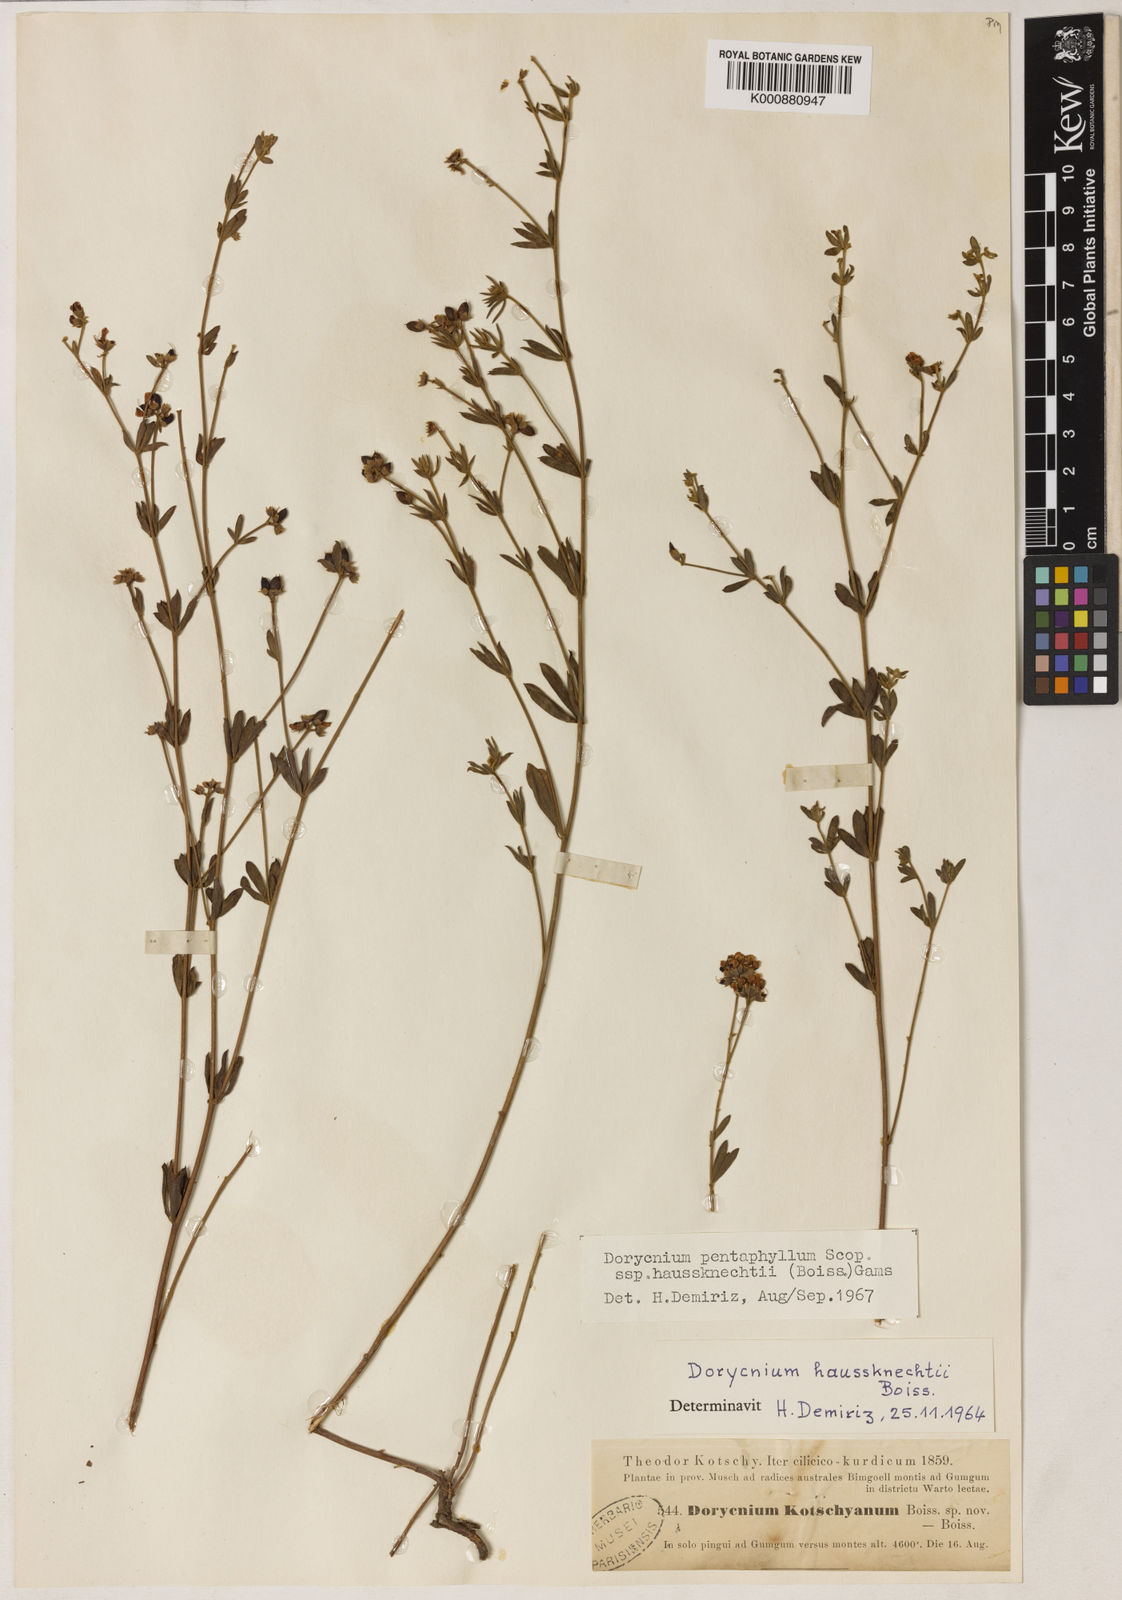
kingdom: Plantae
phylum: Tracheophyta
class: Magnoliopsida
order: Fabales
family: Fabaceae
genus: Lotus
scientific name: Lotus dorycnium
